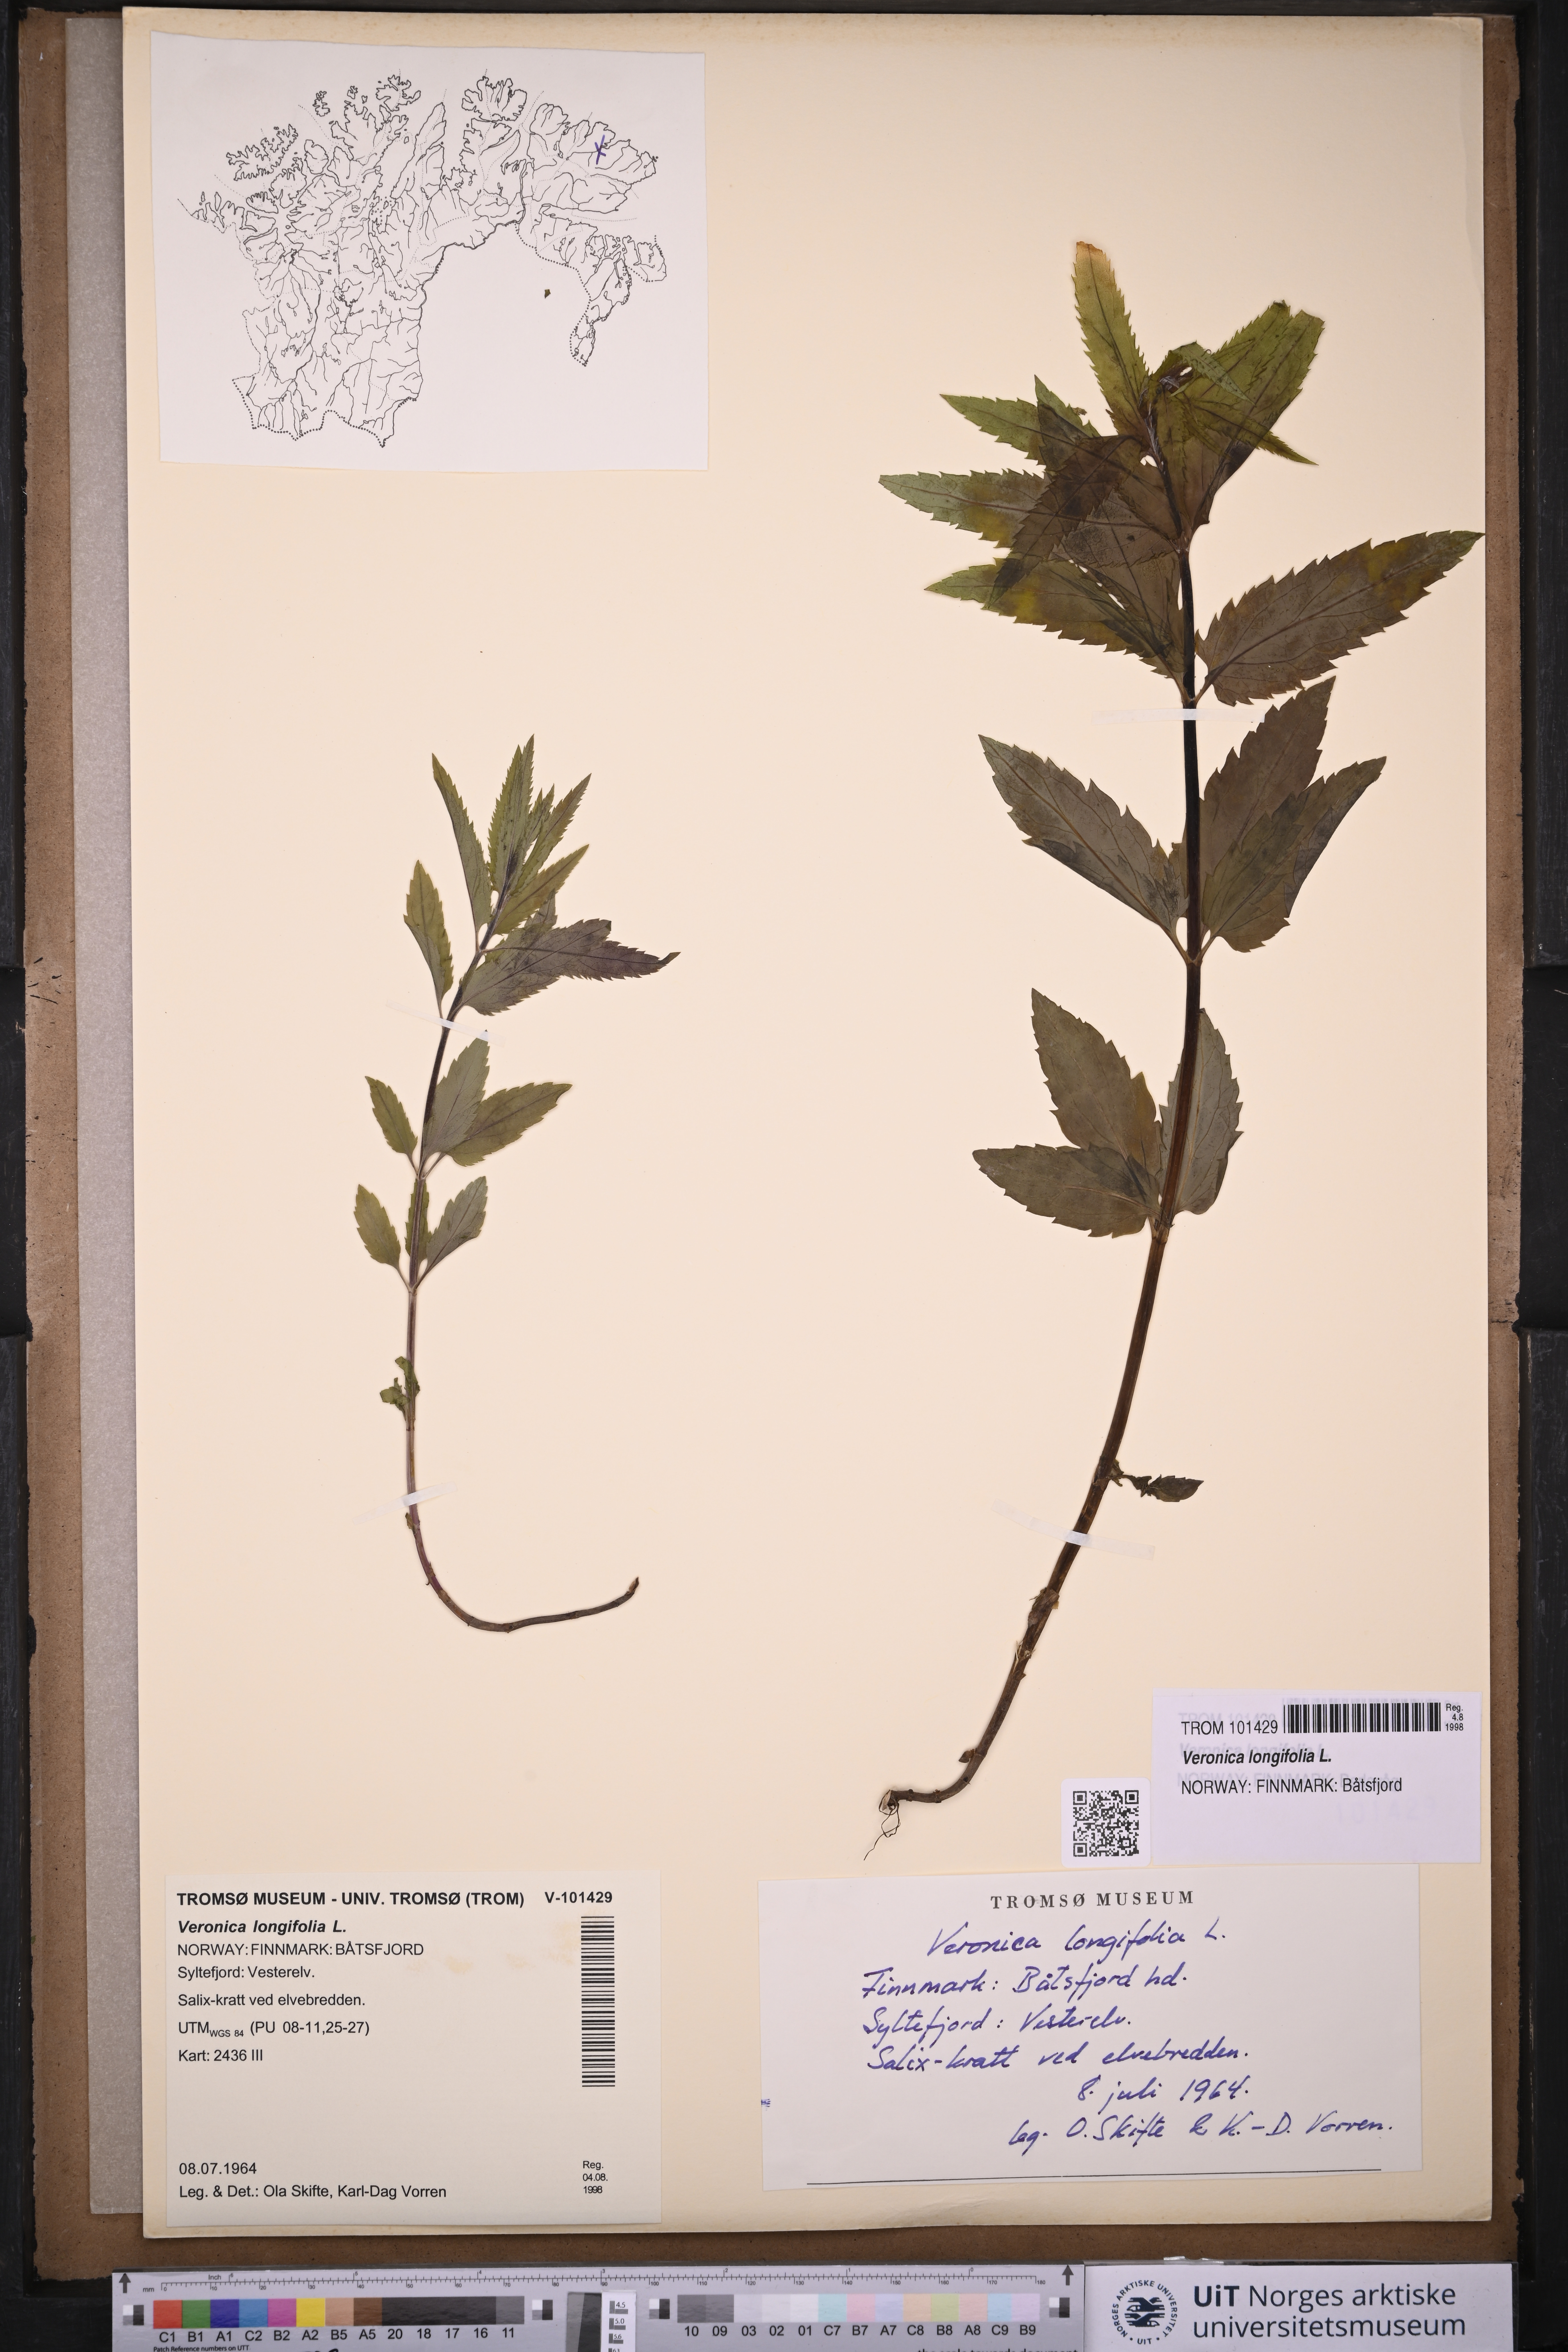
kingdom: Plantae
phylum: Tracheophyta
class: Magnoliopsida
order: Lamiales
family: Plantaginaceae
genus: Veronica
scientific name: Veronica longifolia
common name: Garden speedwell
